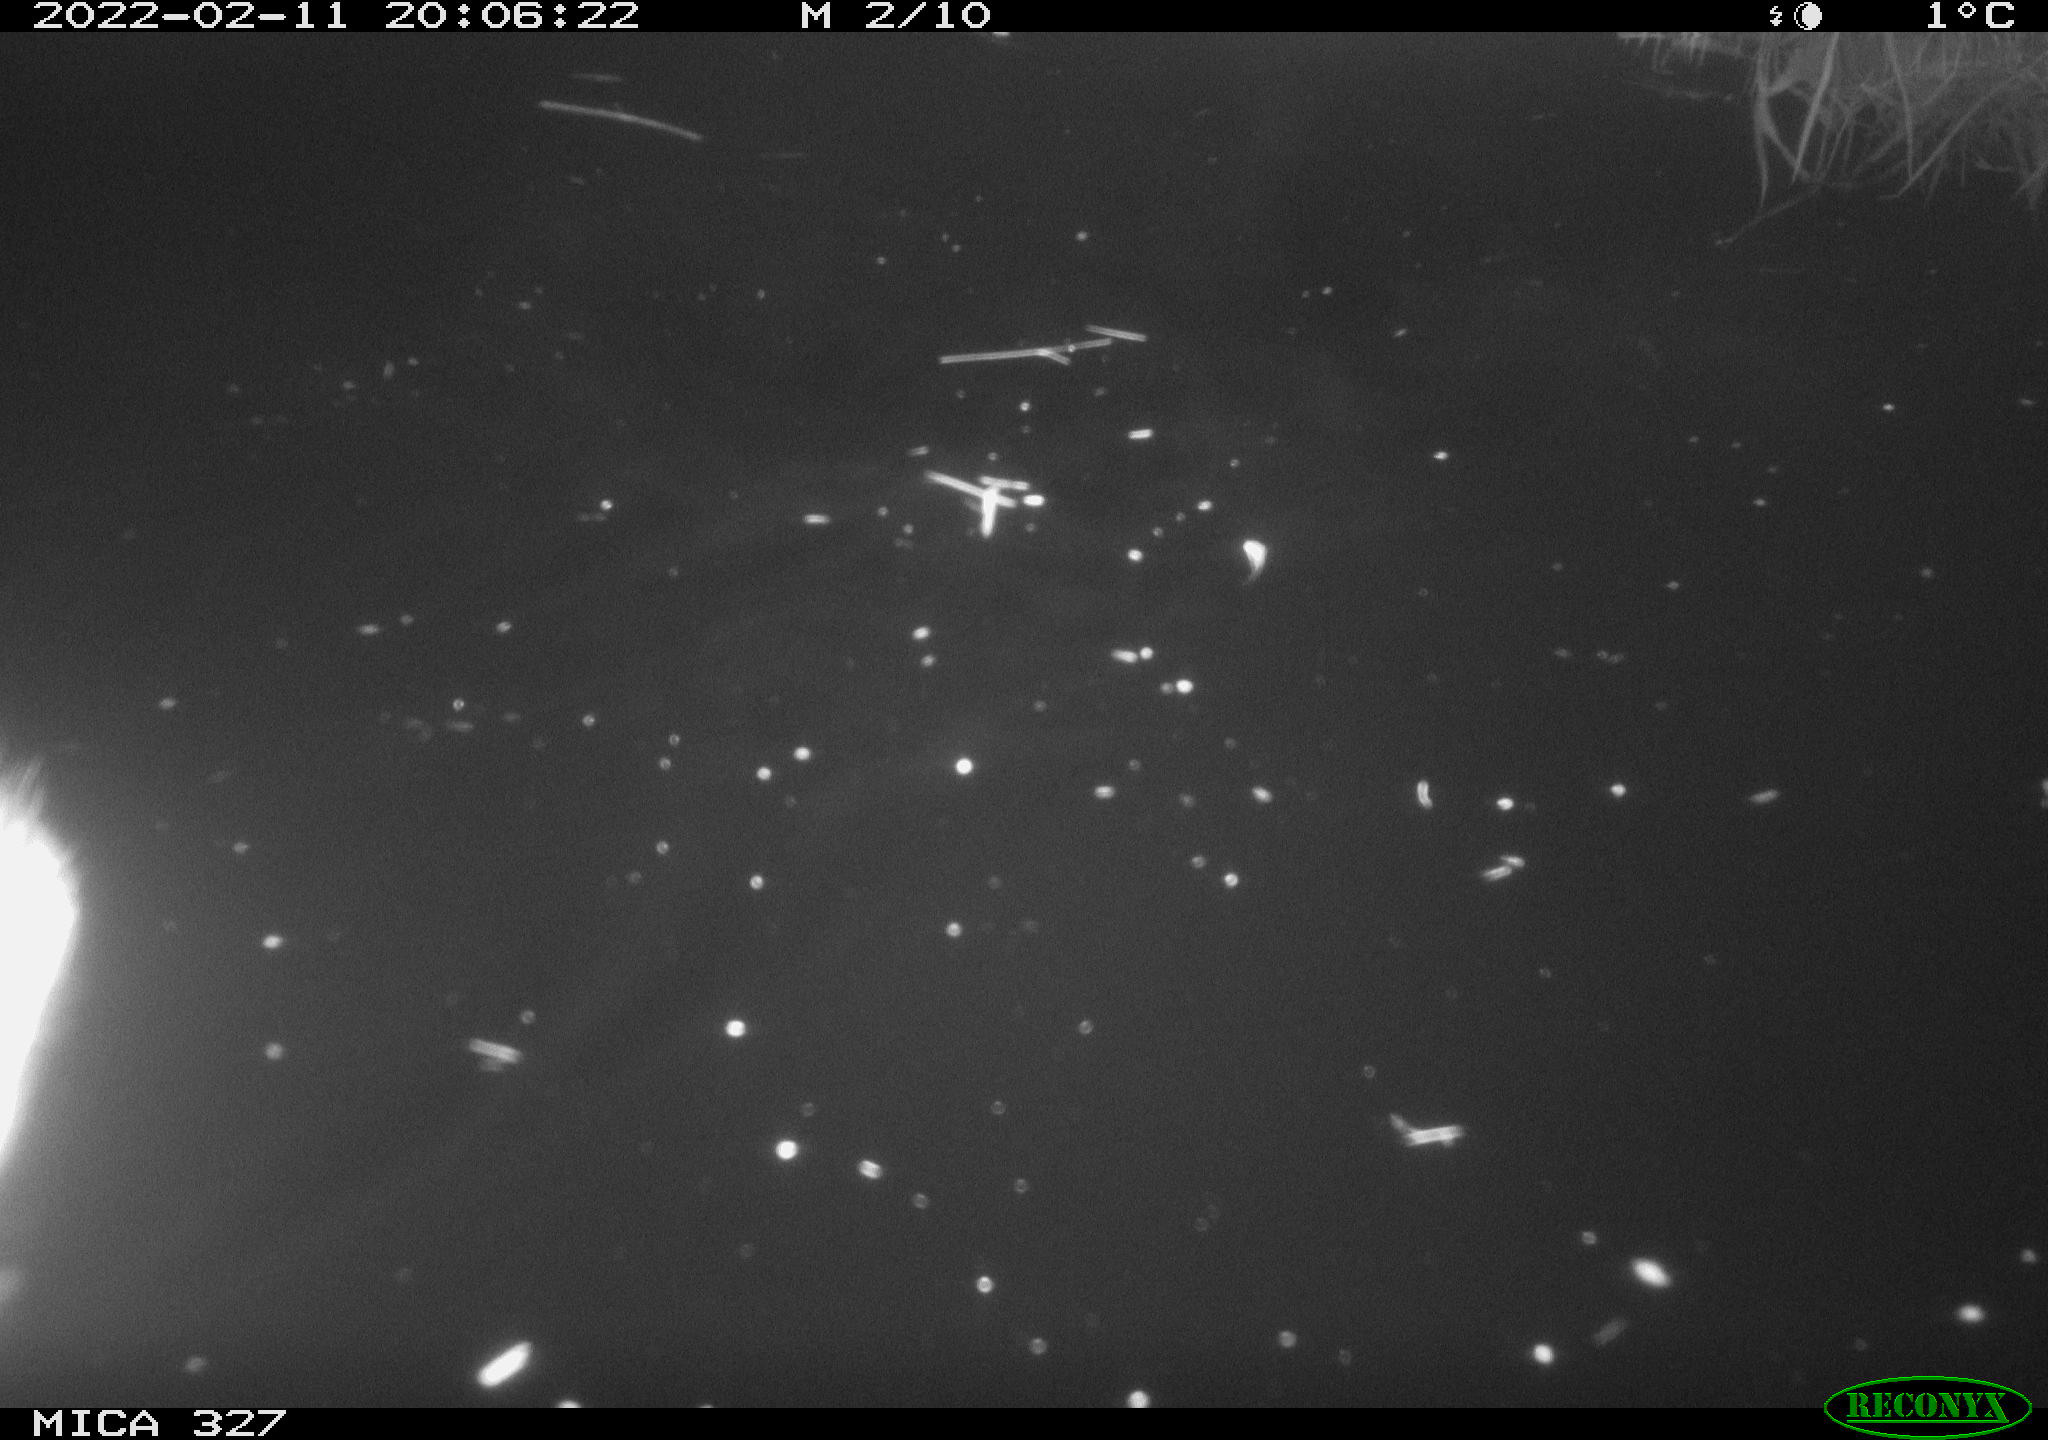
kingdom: Animalia
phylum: Chordata
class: Mammalia
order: Rodentia
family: Cricetidae
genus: Ondatra
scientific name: Ondatra zibethicus
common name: Muskrat
